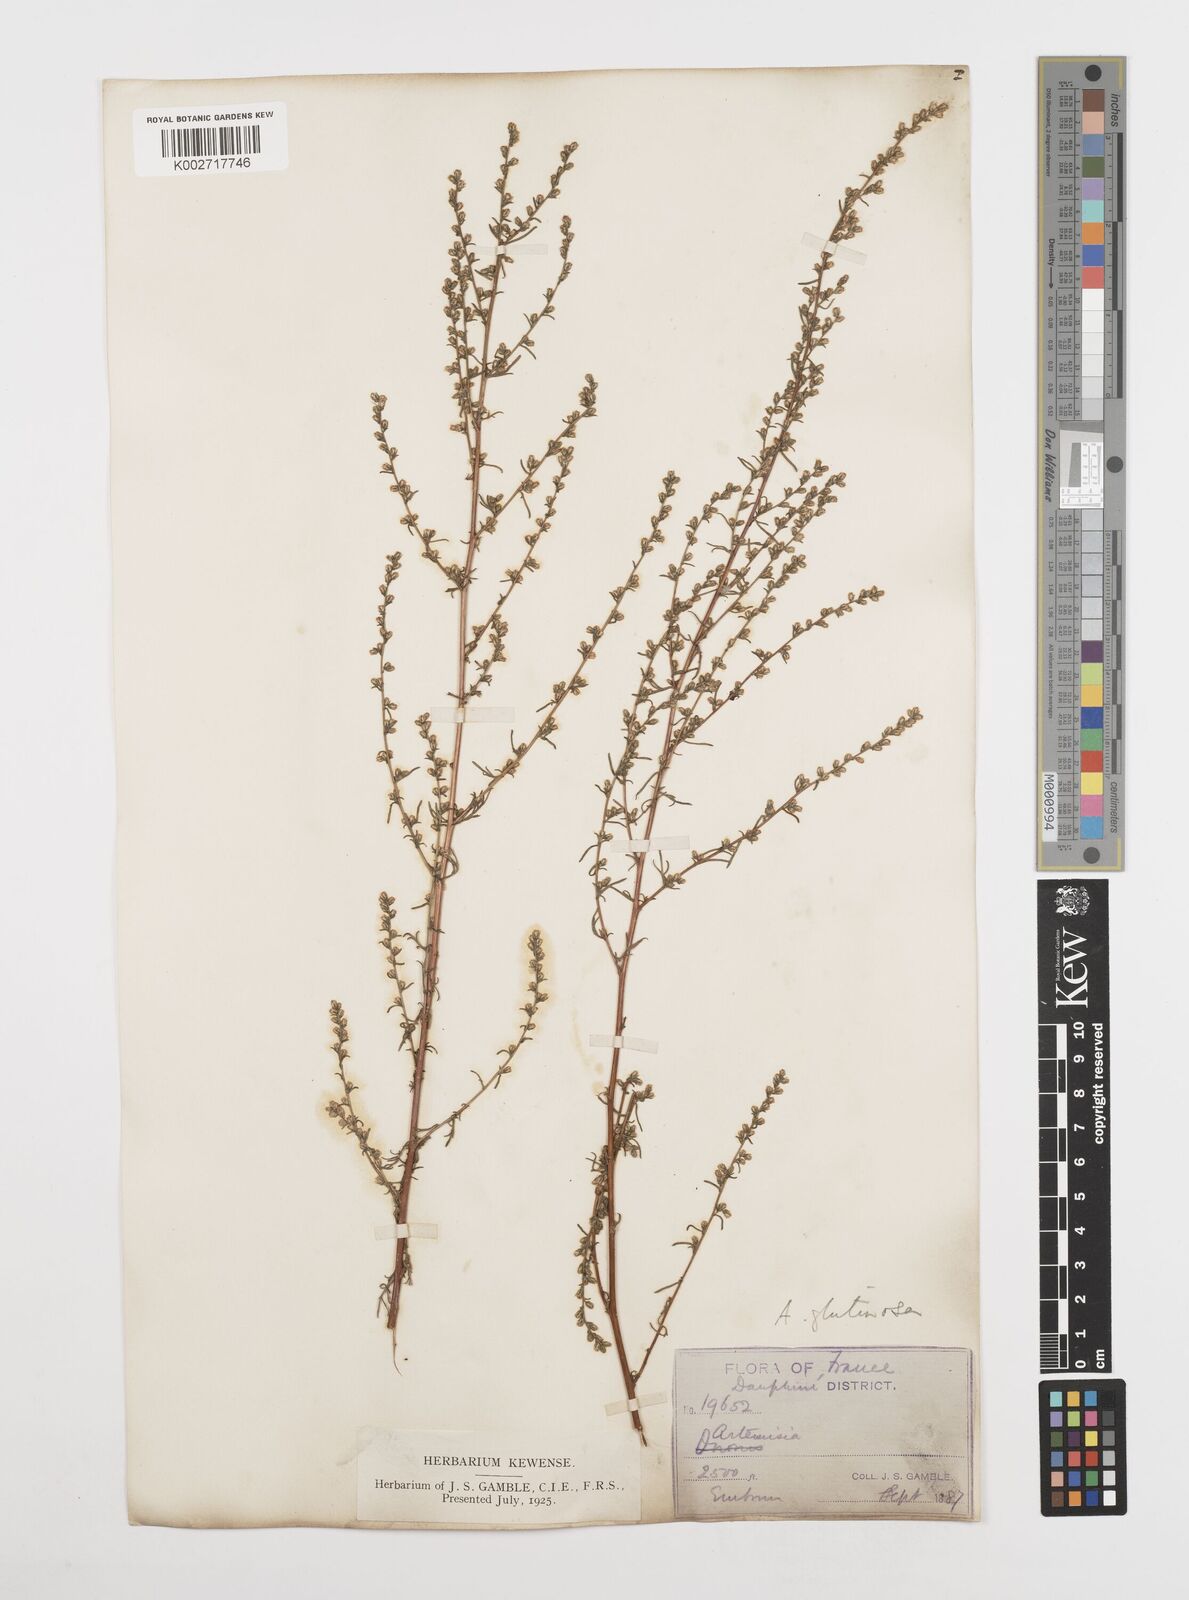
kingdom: Plantae
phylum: Tracheophyta
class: Magnoliopsida
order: Asterales
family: Asteraceae
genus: Artemisia
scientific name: Artemisia campestris
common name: Field wormwood
